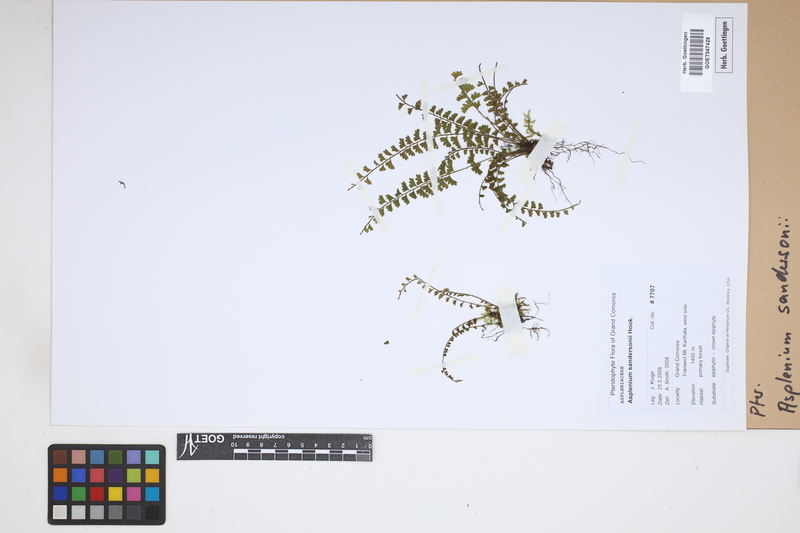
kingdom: Plantae
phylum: Tracheophyta
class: Polypodiopsida
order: Polypodiales
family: Aspleniaceae
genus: Asplenium
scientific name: Asplenium sandersonii
